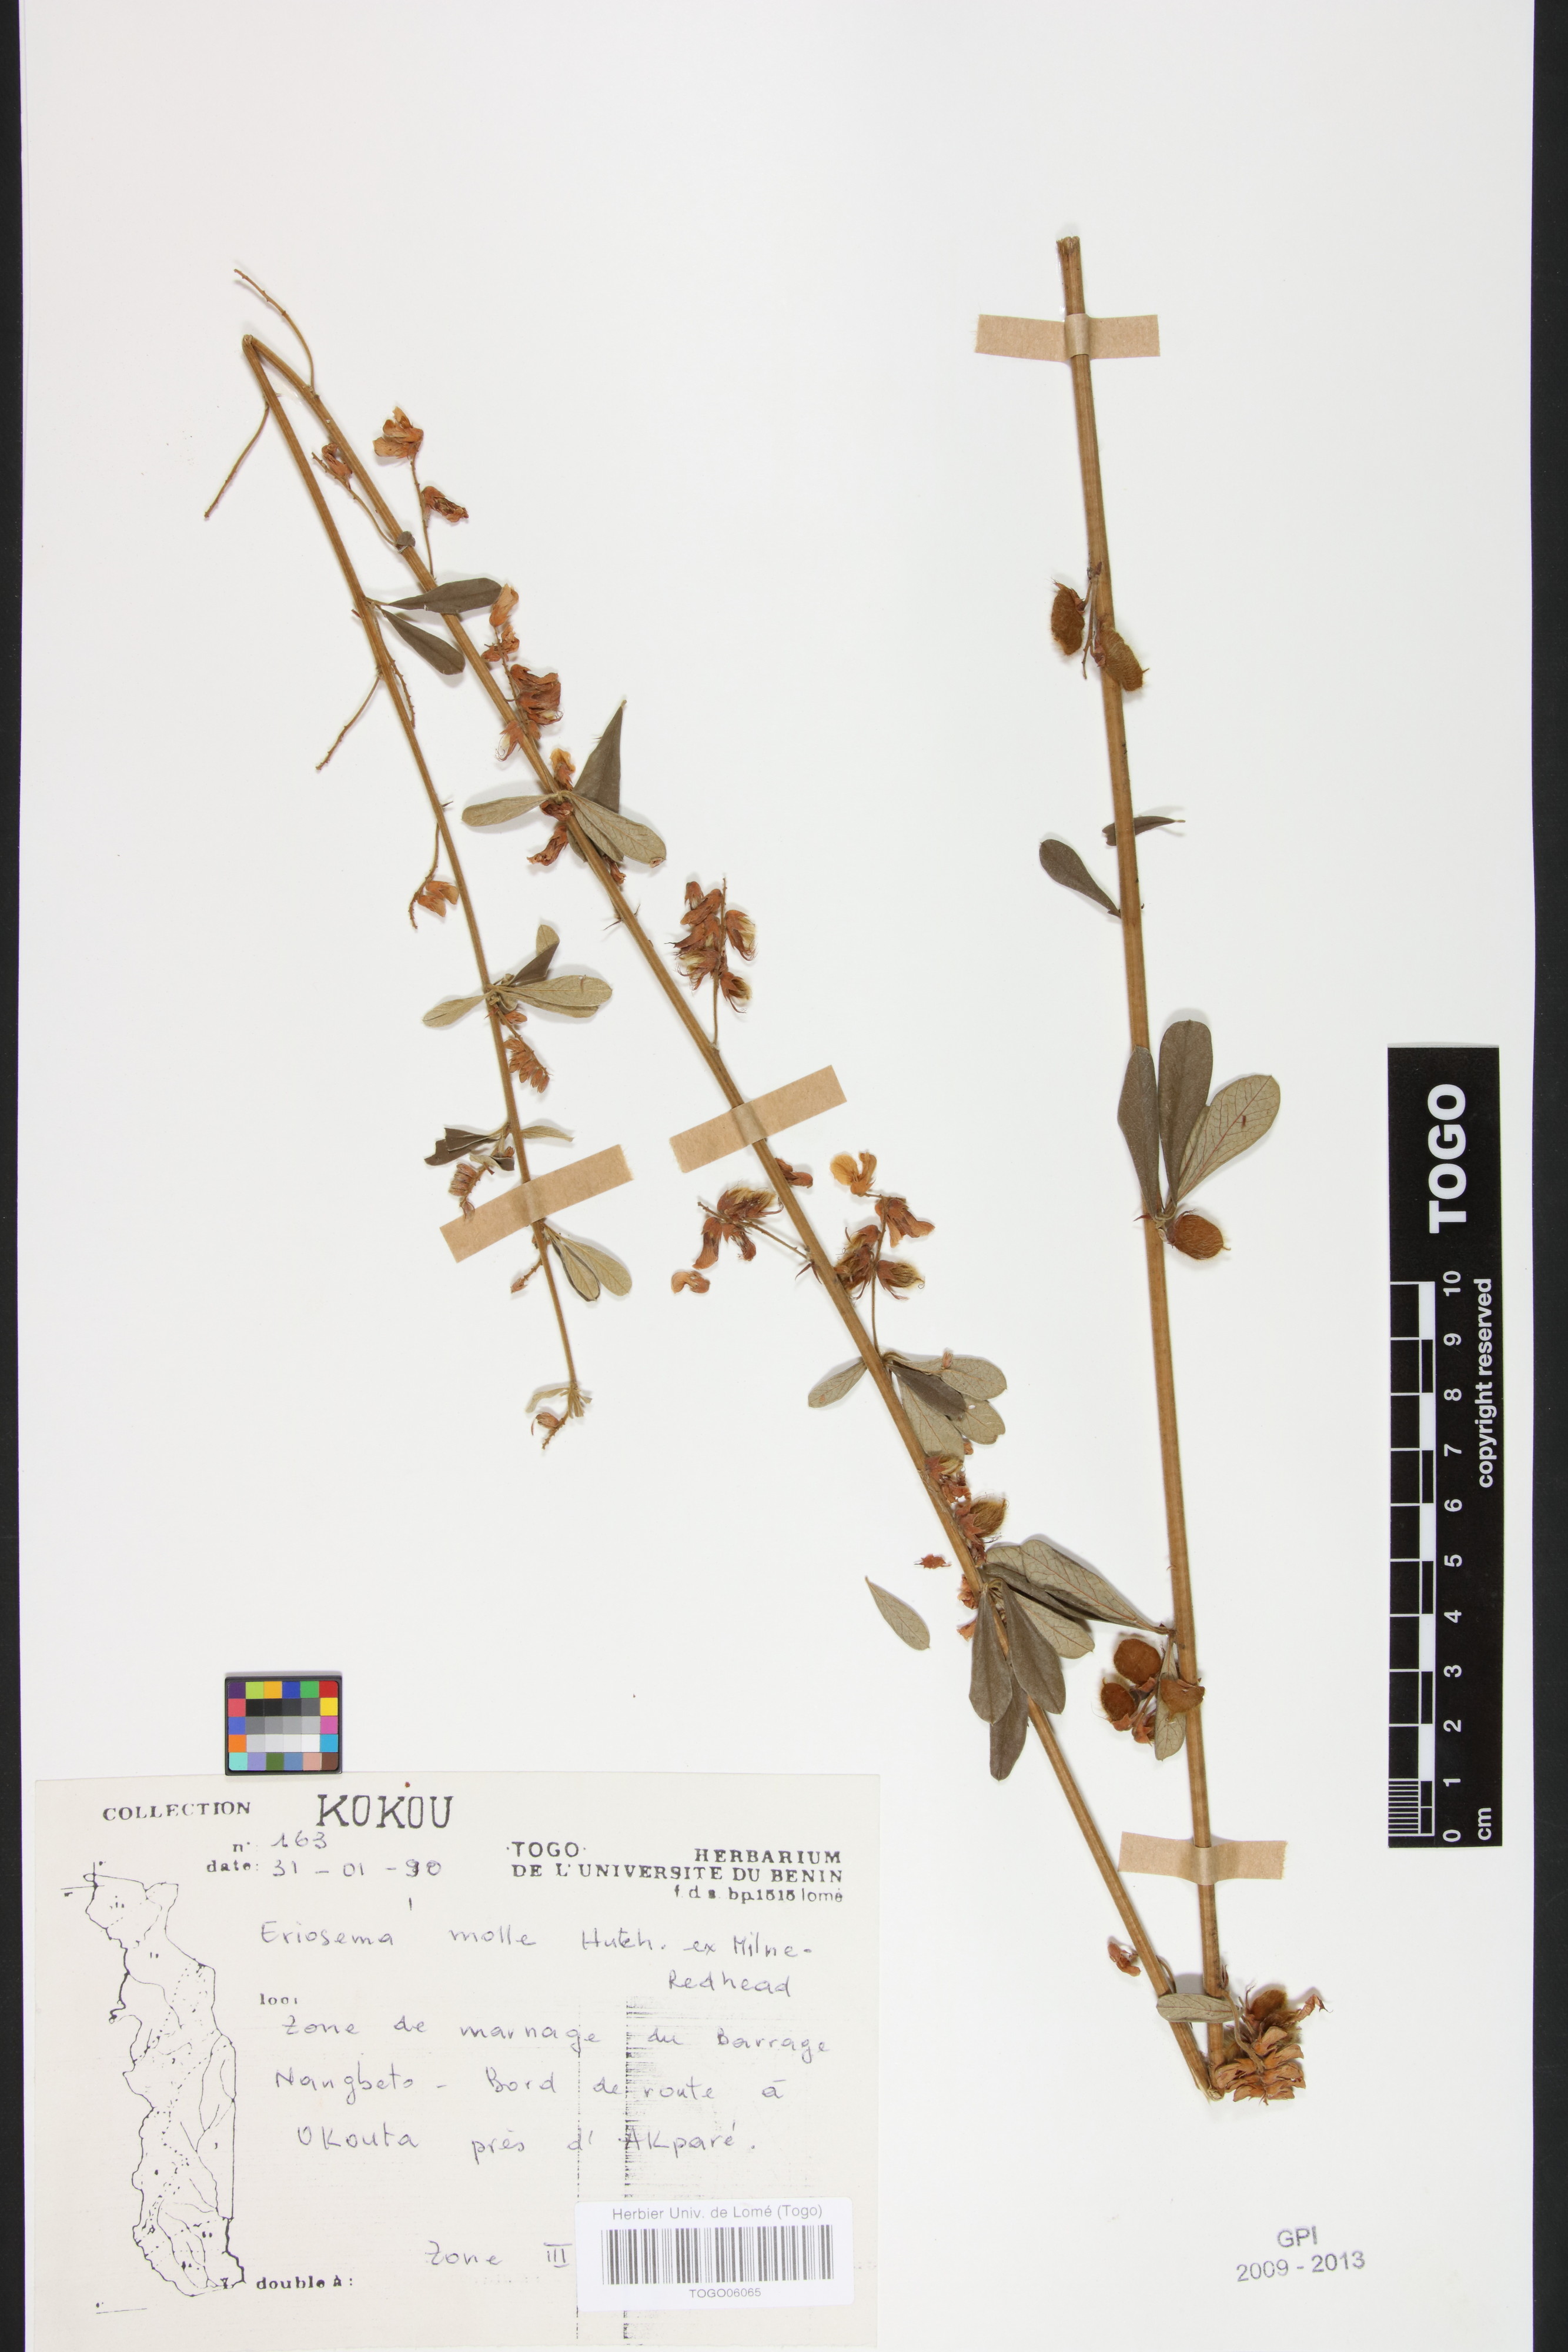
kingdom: Plantae
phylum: Tracheophyta
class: Magnoliopsida
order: Fabales
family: Fabaceae
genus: Eriosema
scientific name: Eriosema molle
